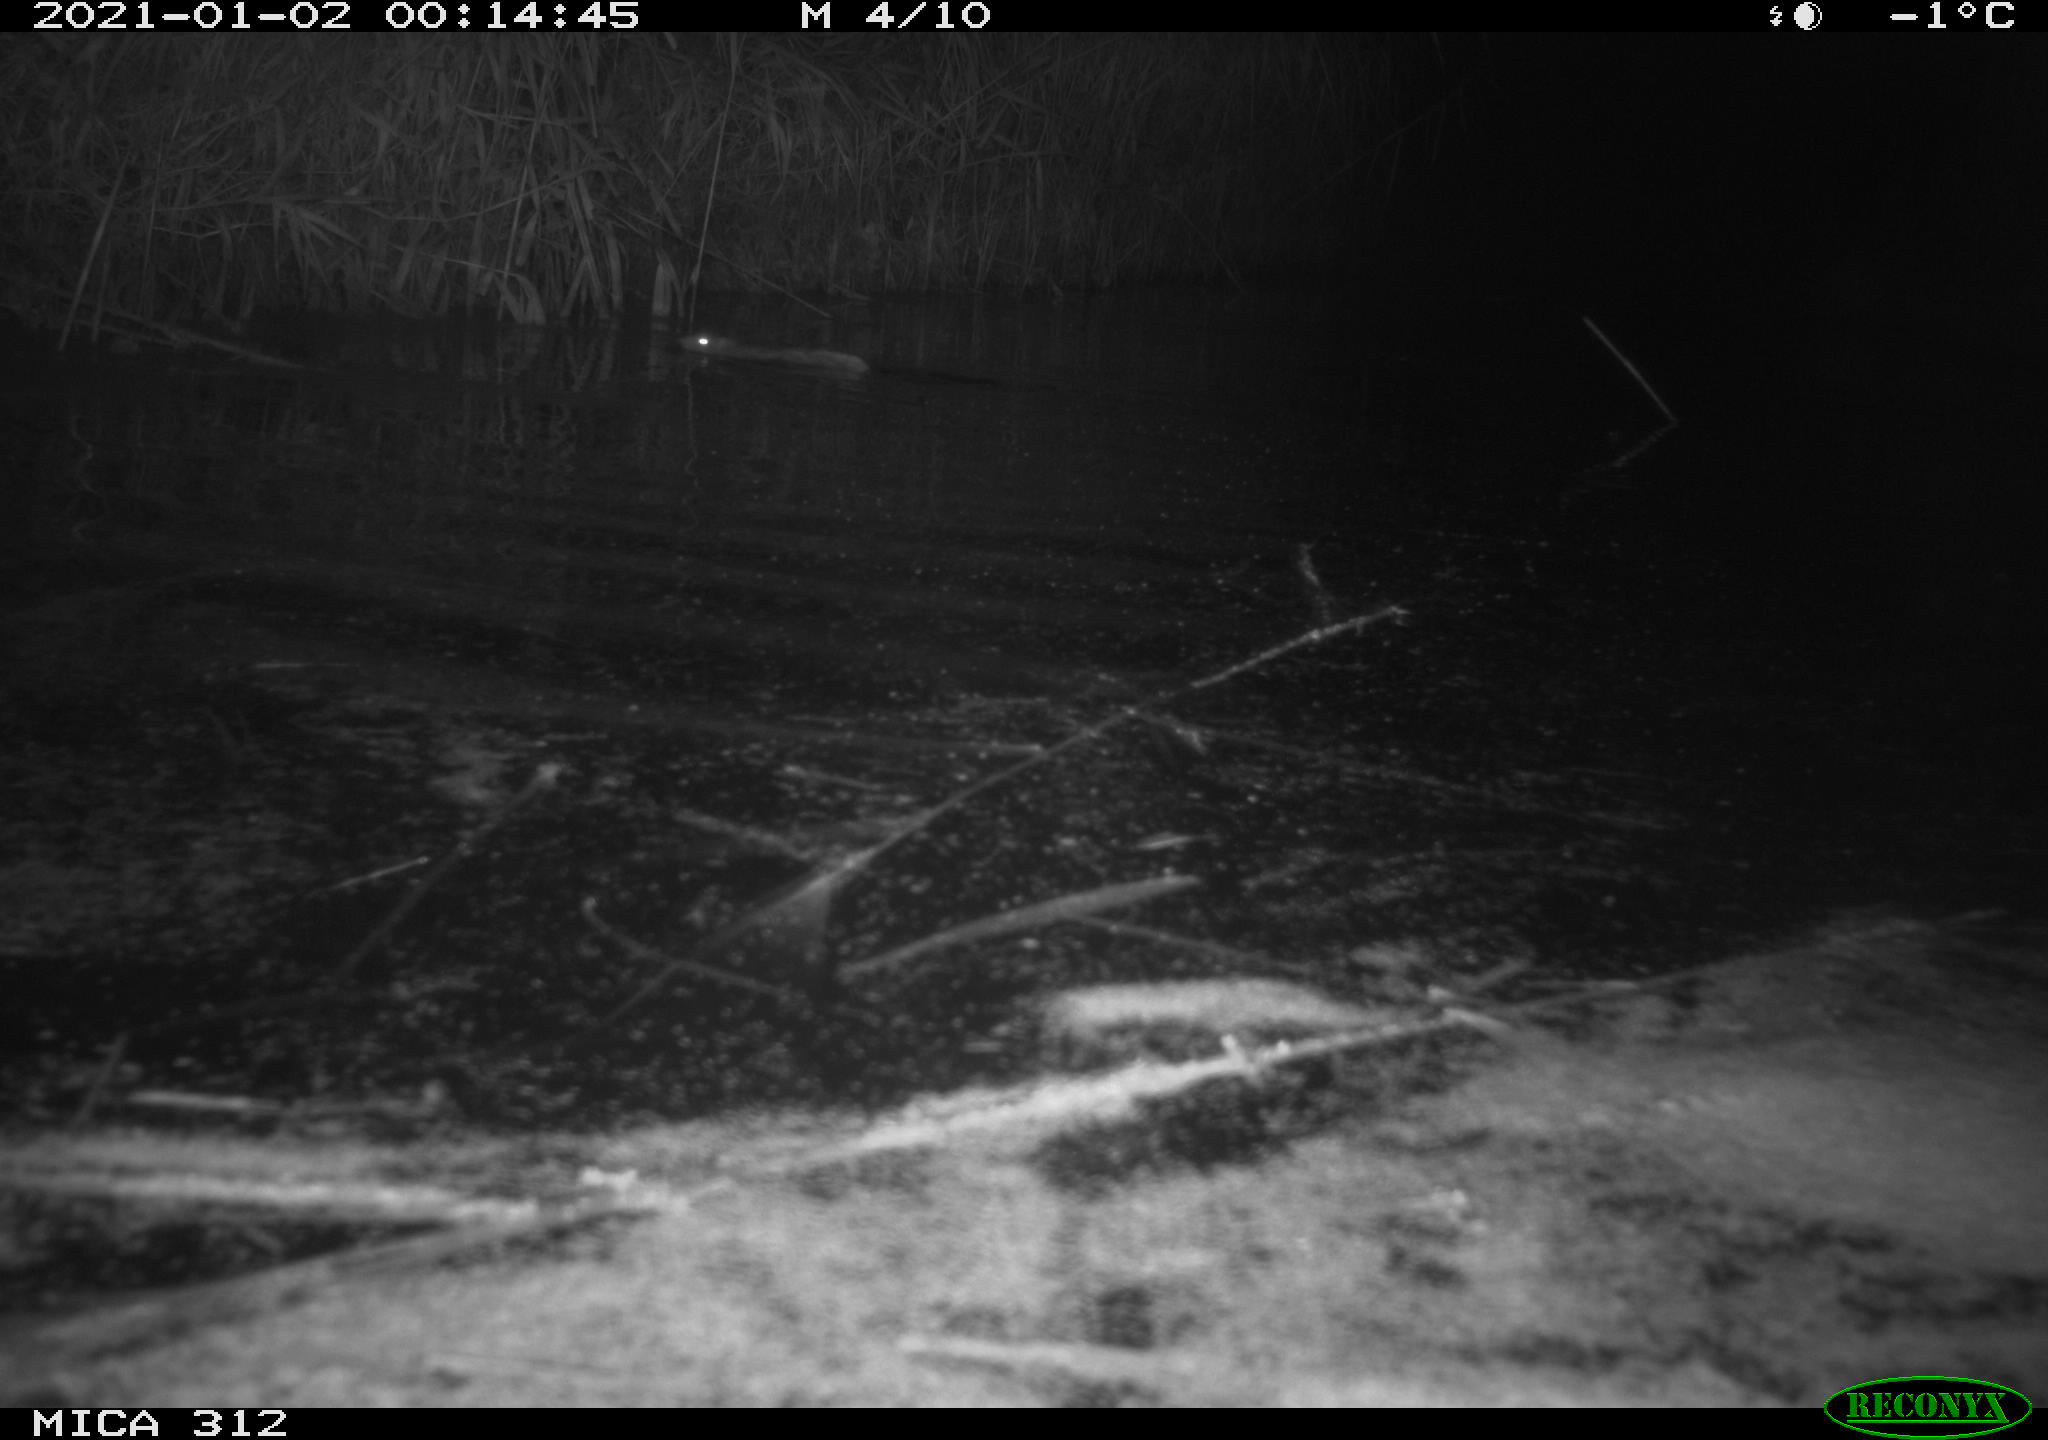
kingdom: Animalia
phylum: Chordata
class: Mammalia
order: Rodentia
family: Muridae
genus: Rattus
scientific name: Rattus norvegicus
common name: Brown rat
